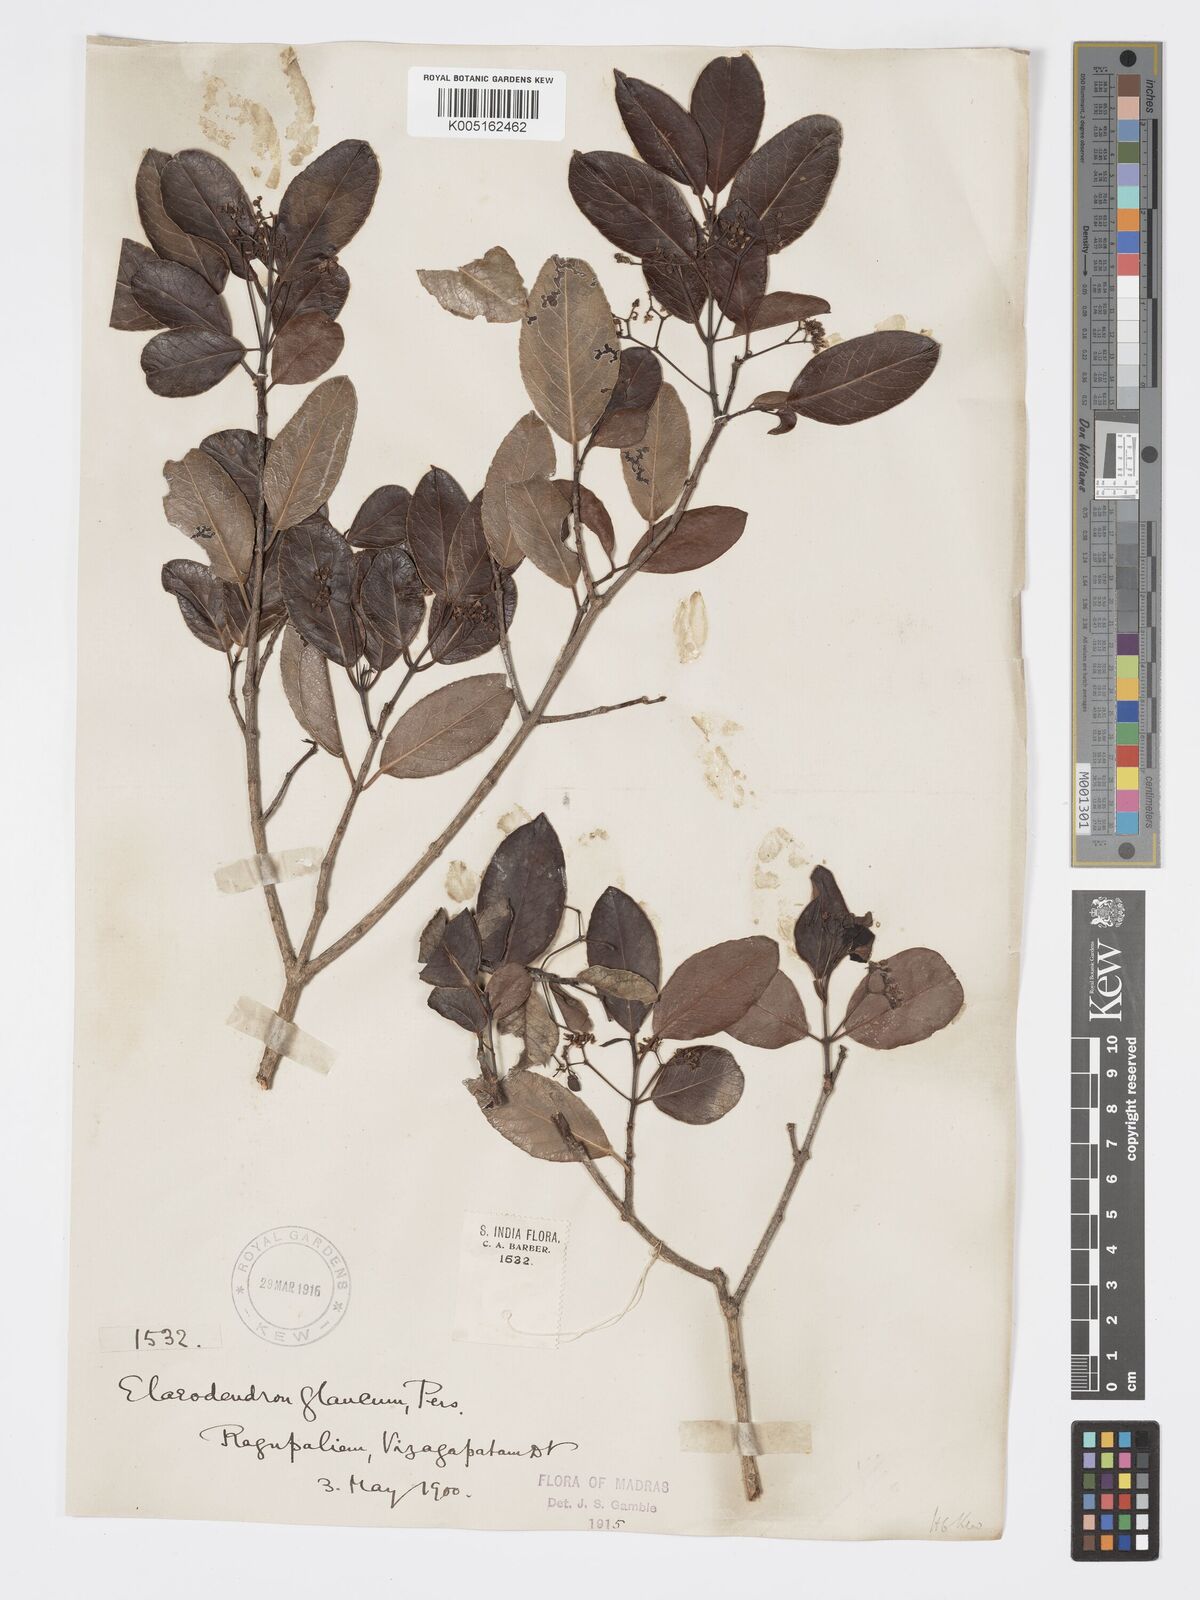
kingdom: Plantae
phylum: Tracheophyta
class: Magnoliopsida
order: Celastrales
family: Celastraceae
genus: Elaeodendron
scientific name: Elaeodendron glaucum
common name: Ceylon-tea
